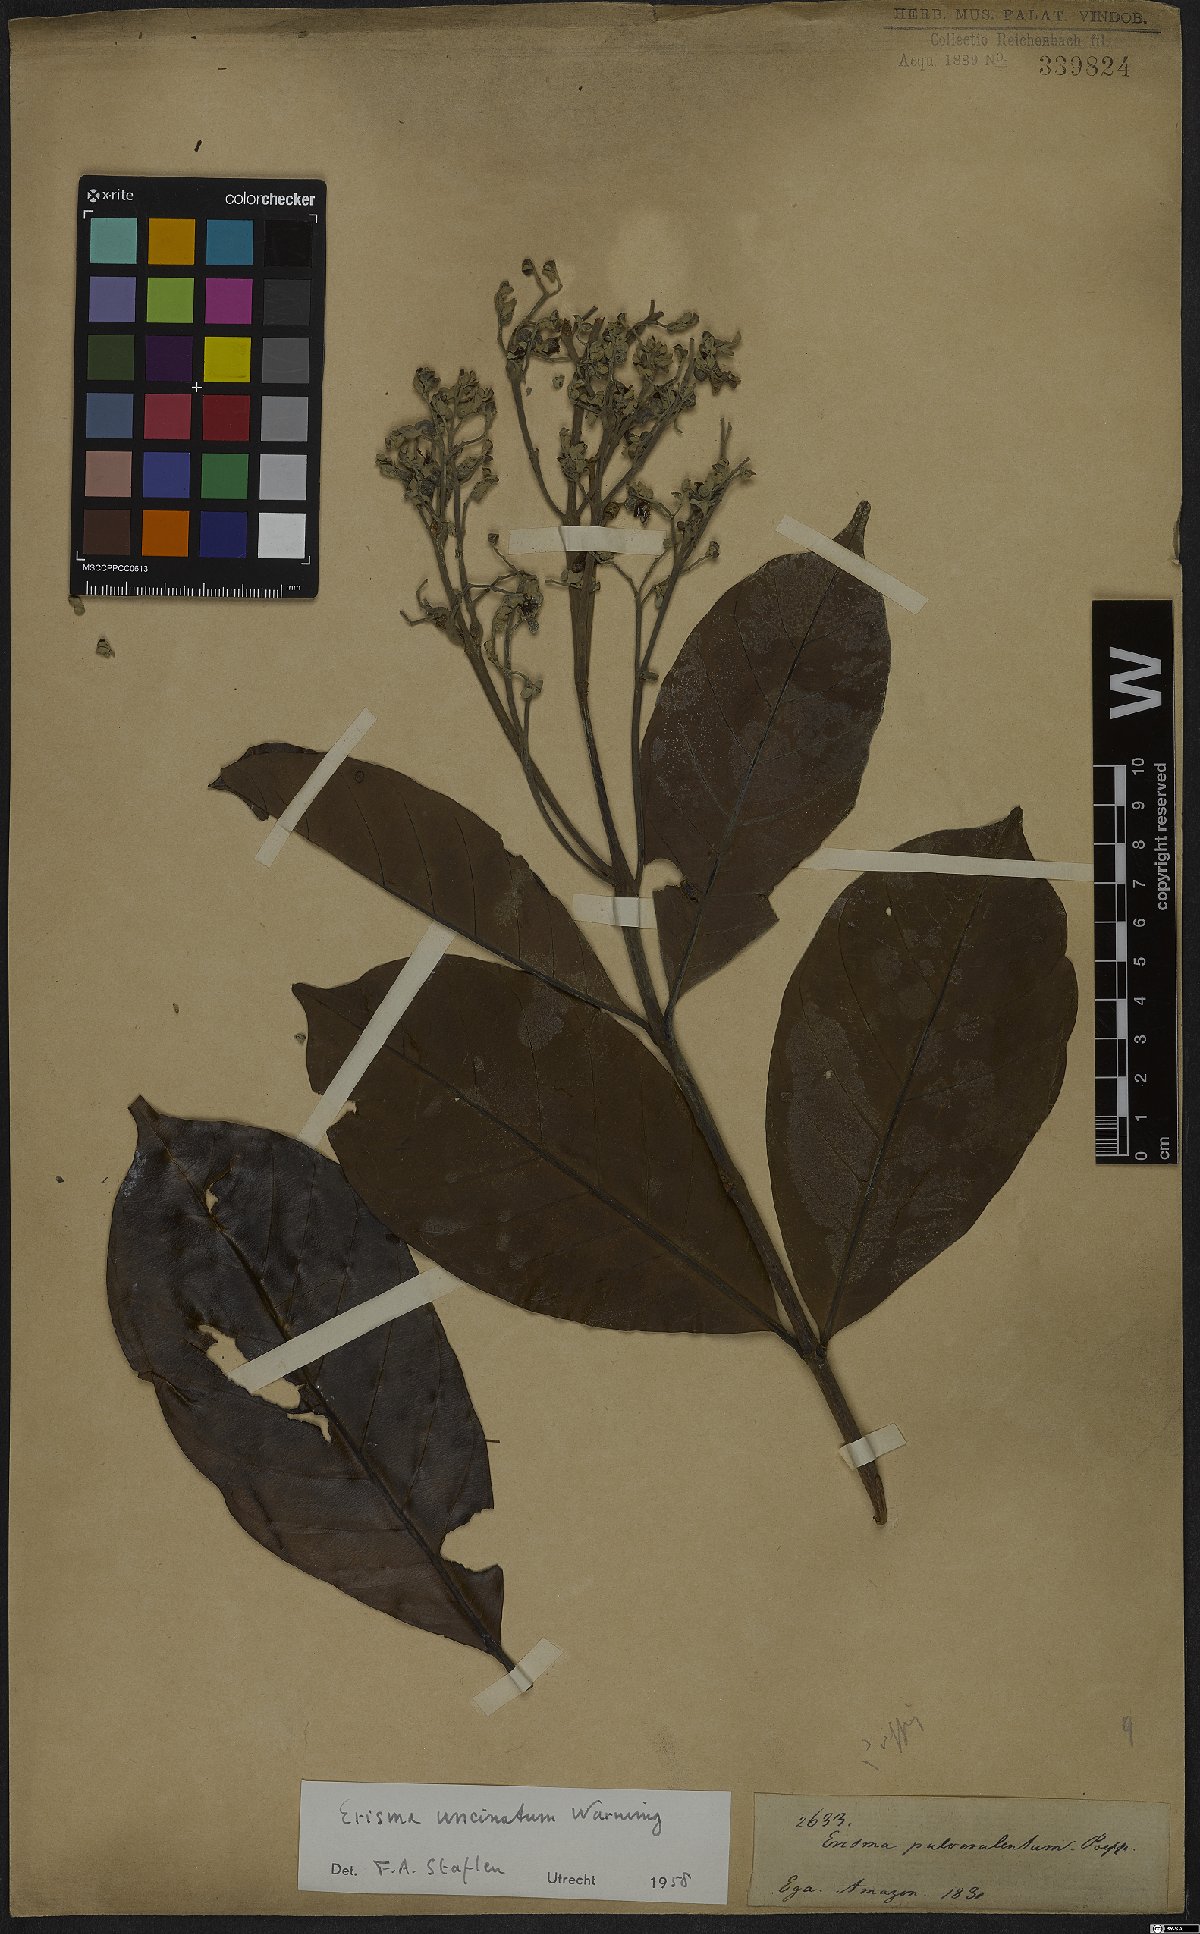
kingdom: Plantae
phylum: Tracheophyta
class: Magnoliopsida
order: Myrtales
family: Vochysiaceae
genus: Erisma
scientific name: Erisma uncinatum
